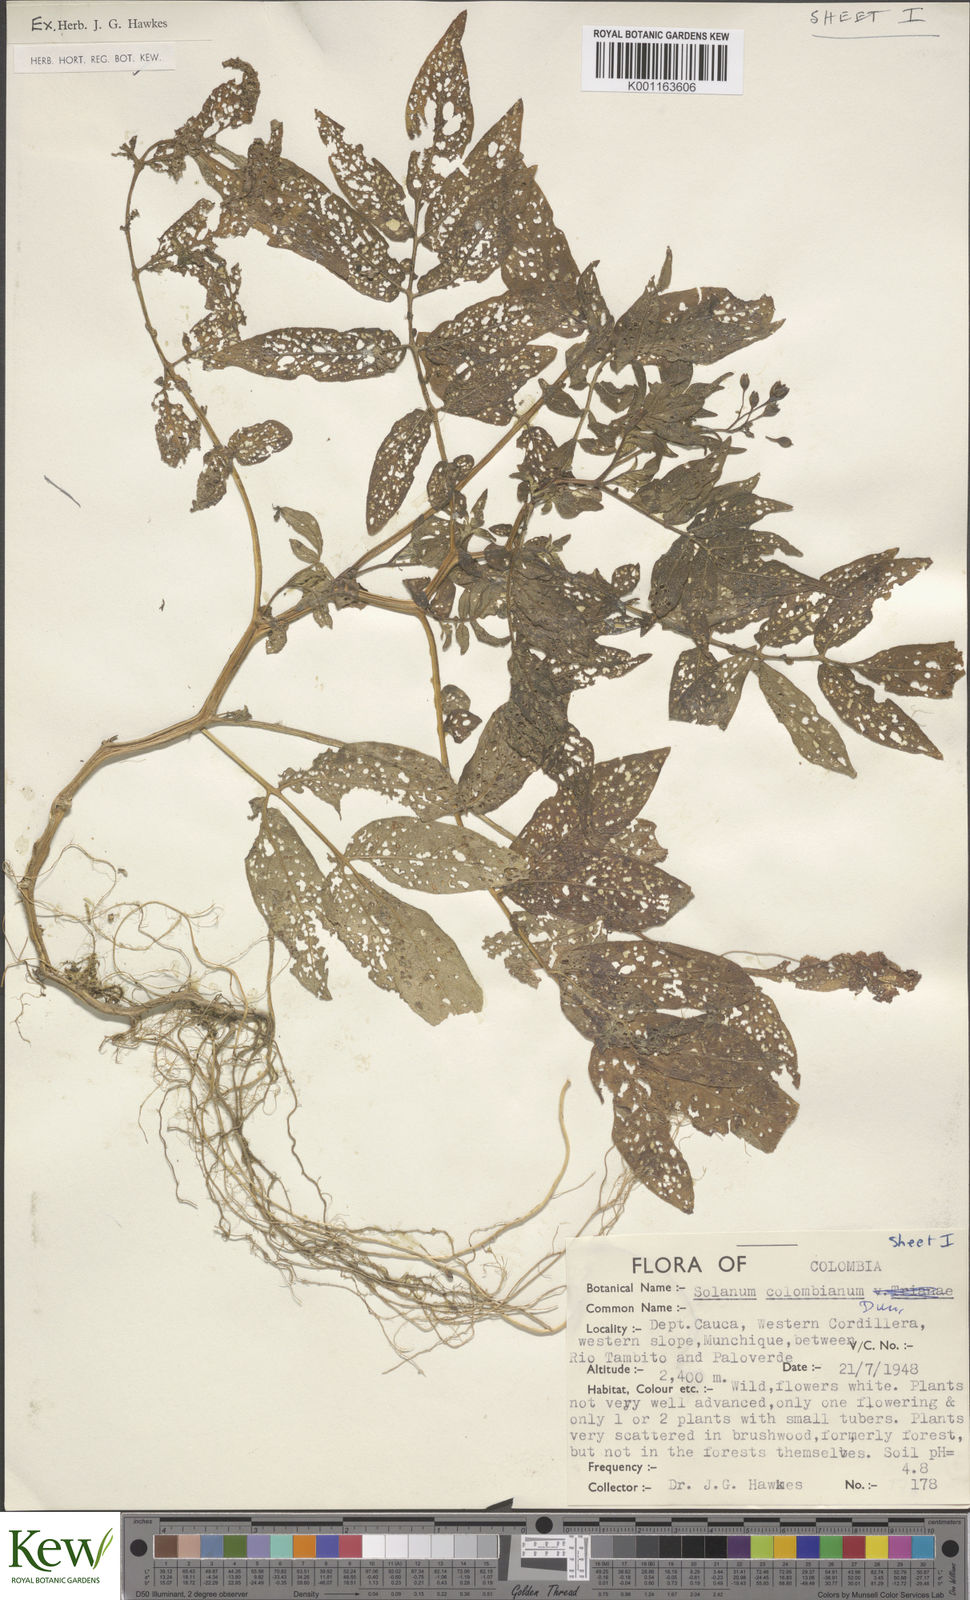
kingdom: Plantae
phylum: Tracheophyta
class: Magnoliopsida
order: Solanales
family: Solanaceae
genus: Solanum
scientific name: Solanum colombianum
